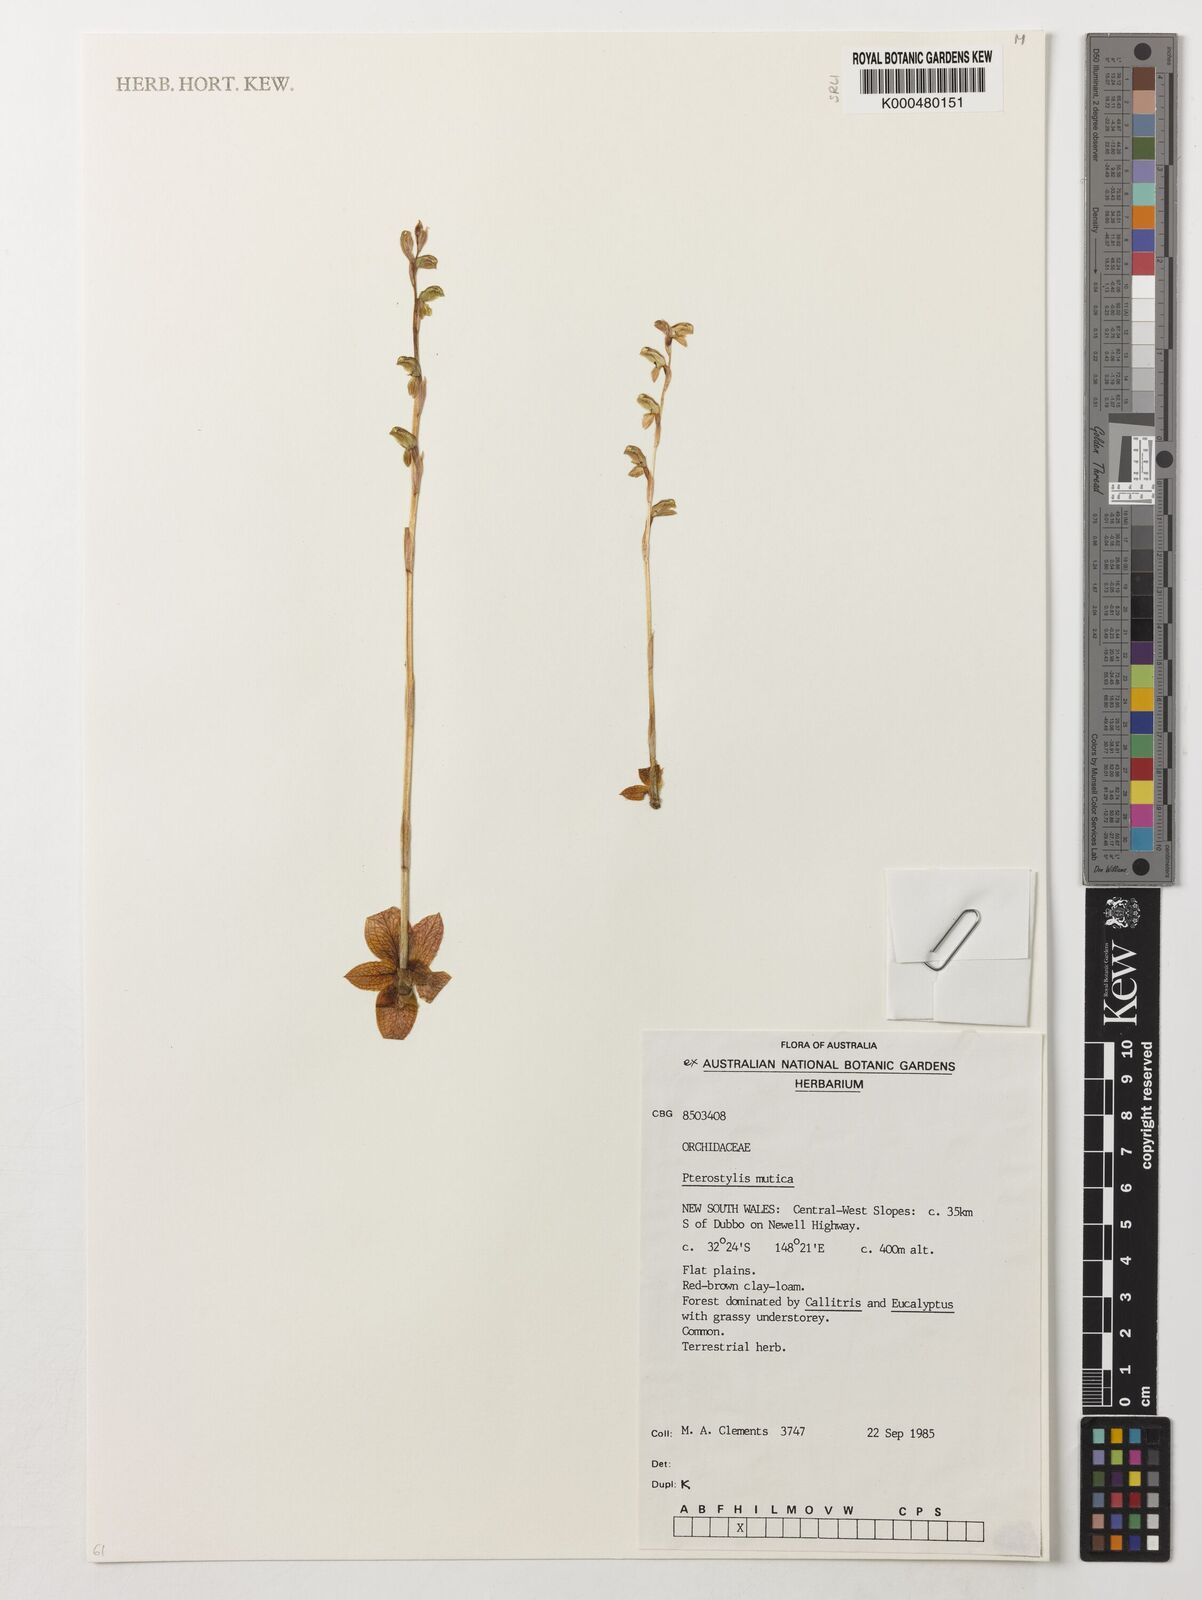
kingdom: Plantae
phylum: Tracheophyta
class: Liliopsida
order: Asparagales
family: Orchidaceae
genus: Pterostylis
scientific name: Pterostylis mutica
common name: Midget greenhood
